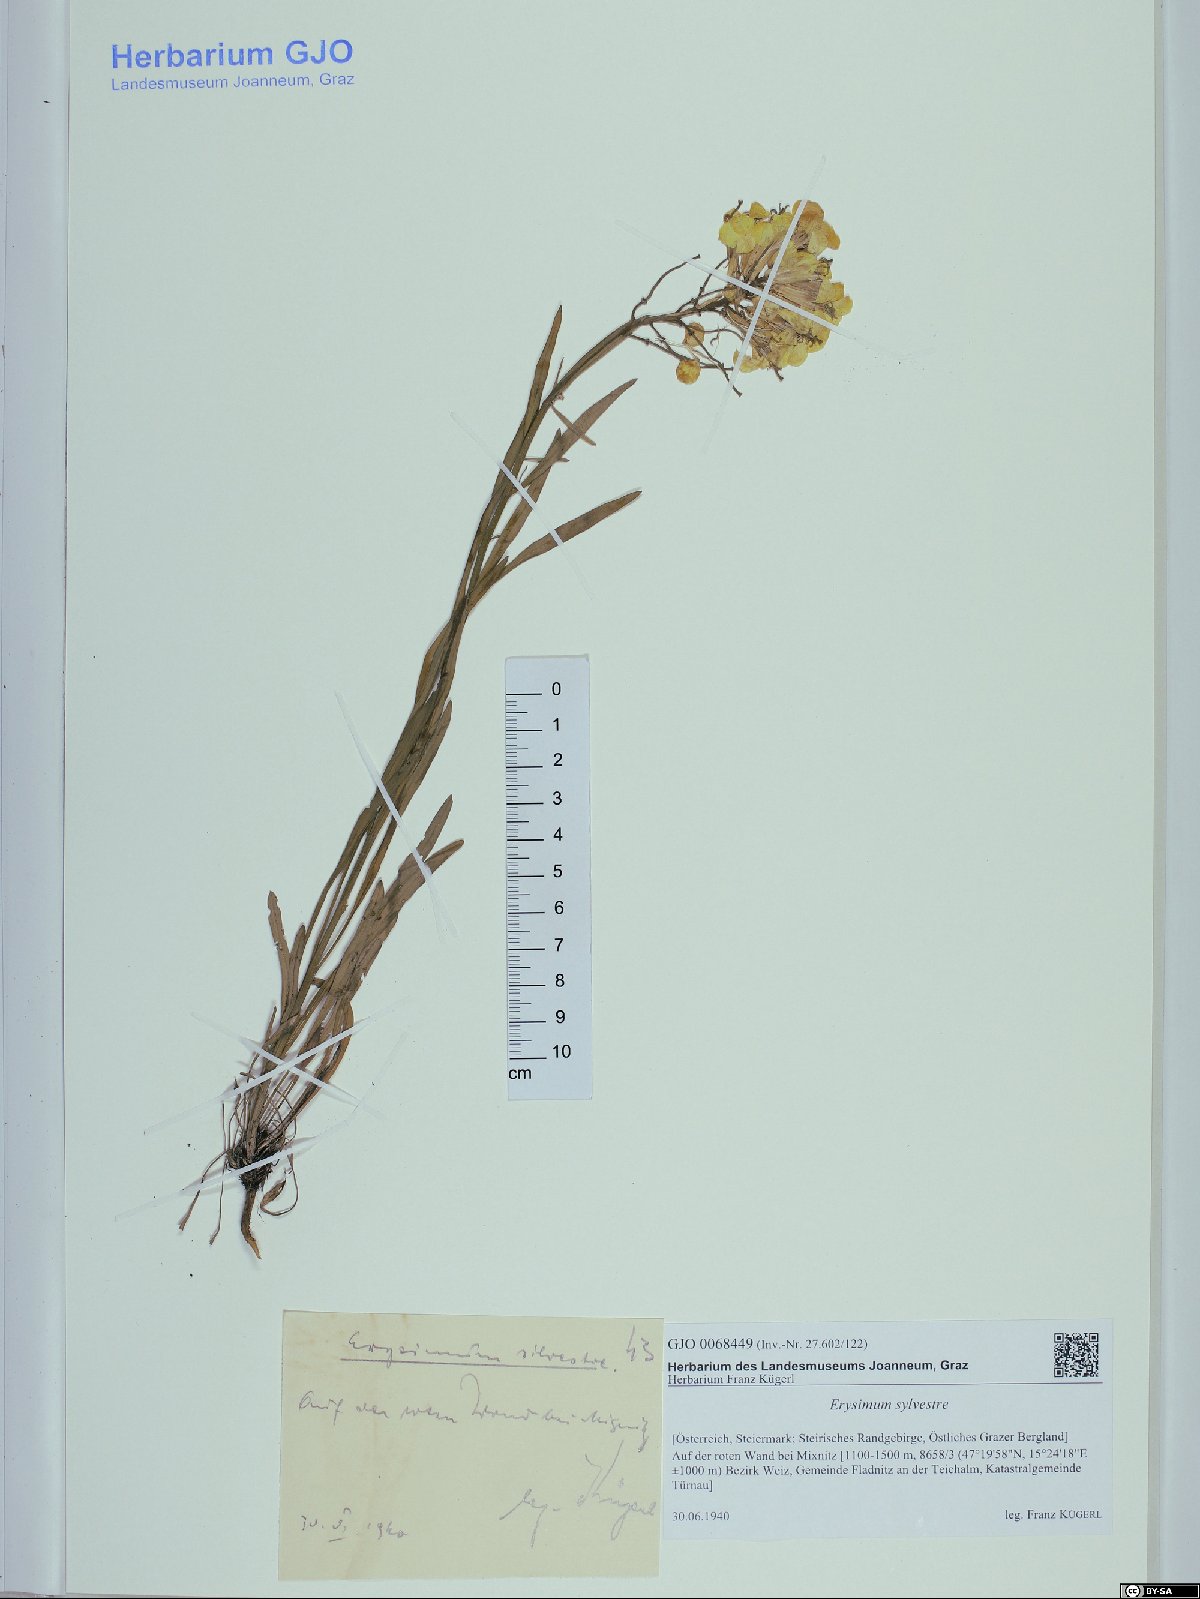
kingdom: Plantae
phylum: Tracheophyta
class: Magnoliopsida
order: Brassicales
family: Brassicaceae
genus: Erysimum
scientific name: Erysimum sylvestre
